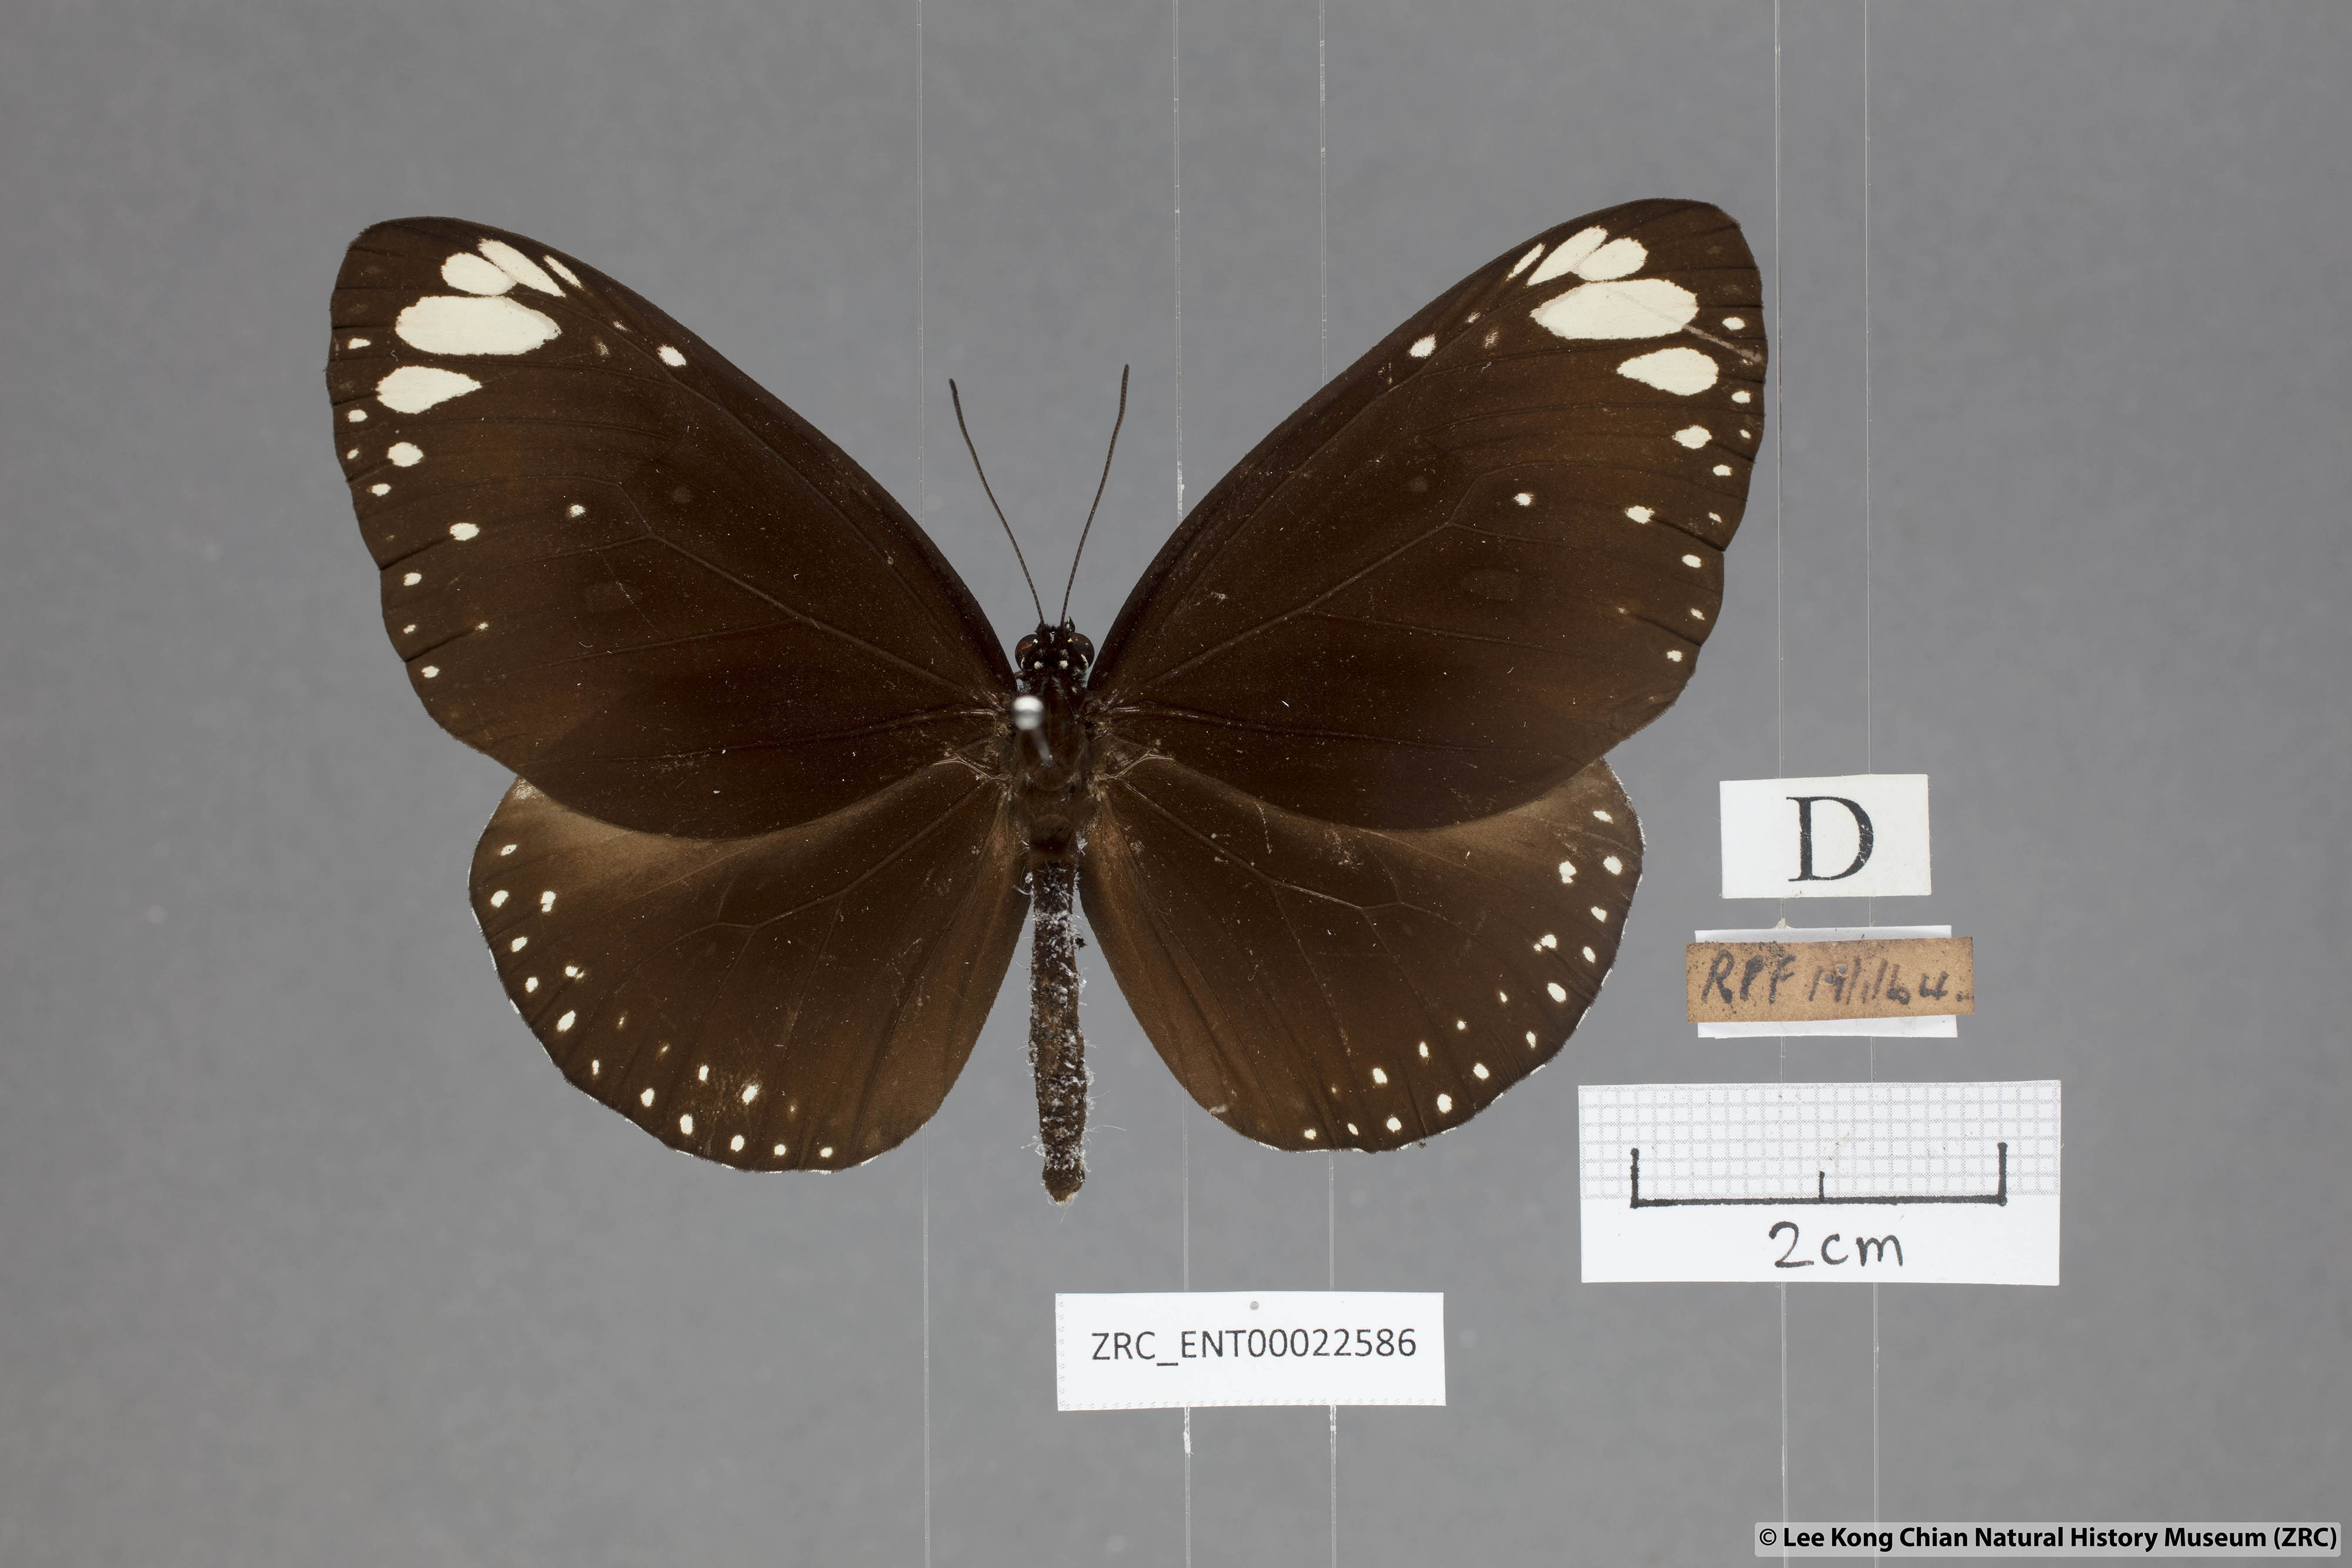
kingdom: Animalia
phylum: Arthropoda
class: Insecta
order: Lepidoptera
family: Nymphalidae
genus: Euploea
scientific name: Euploea crameri
